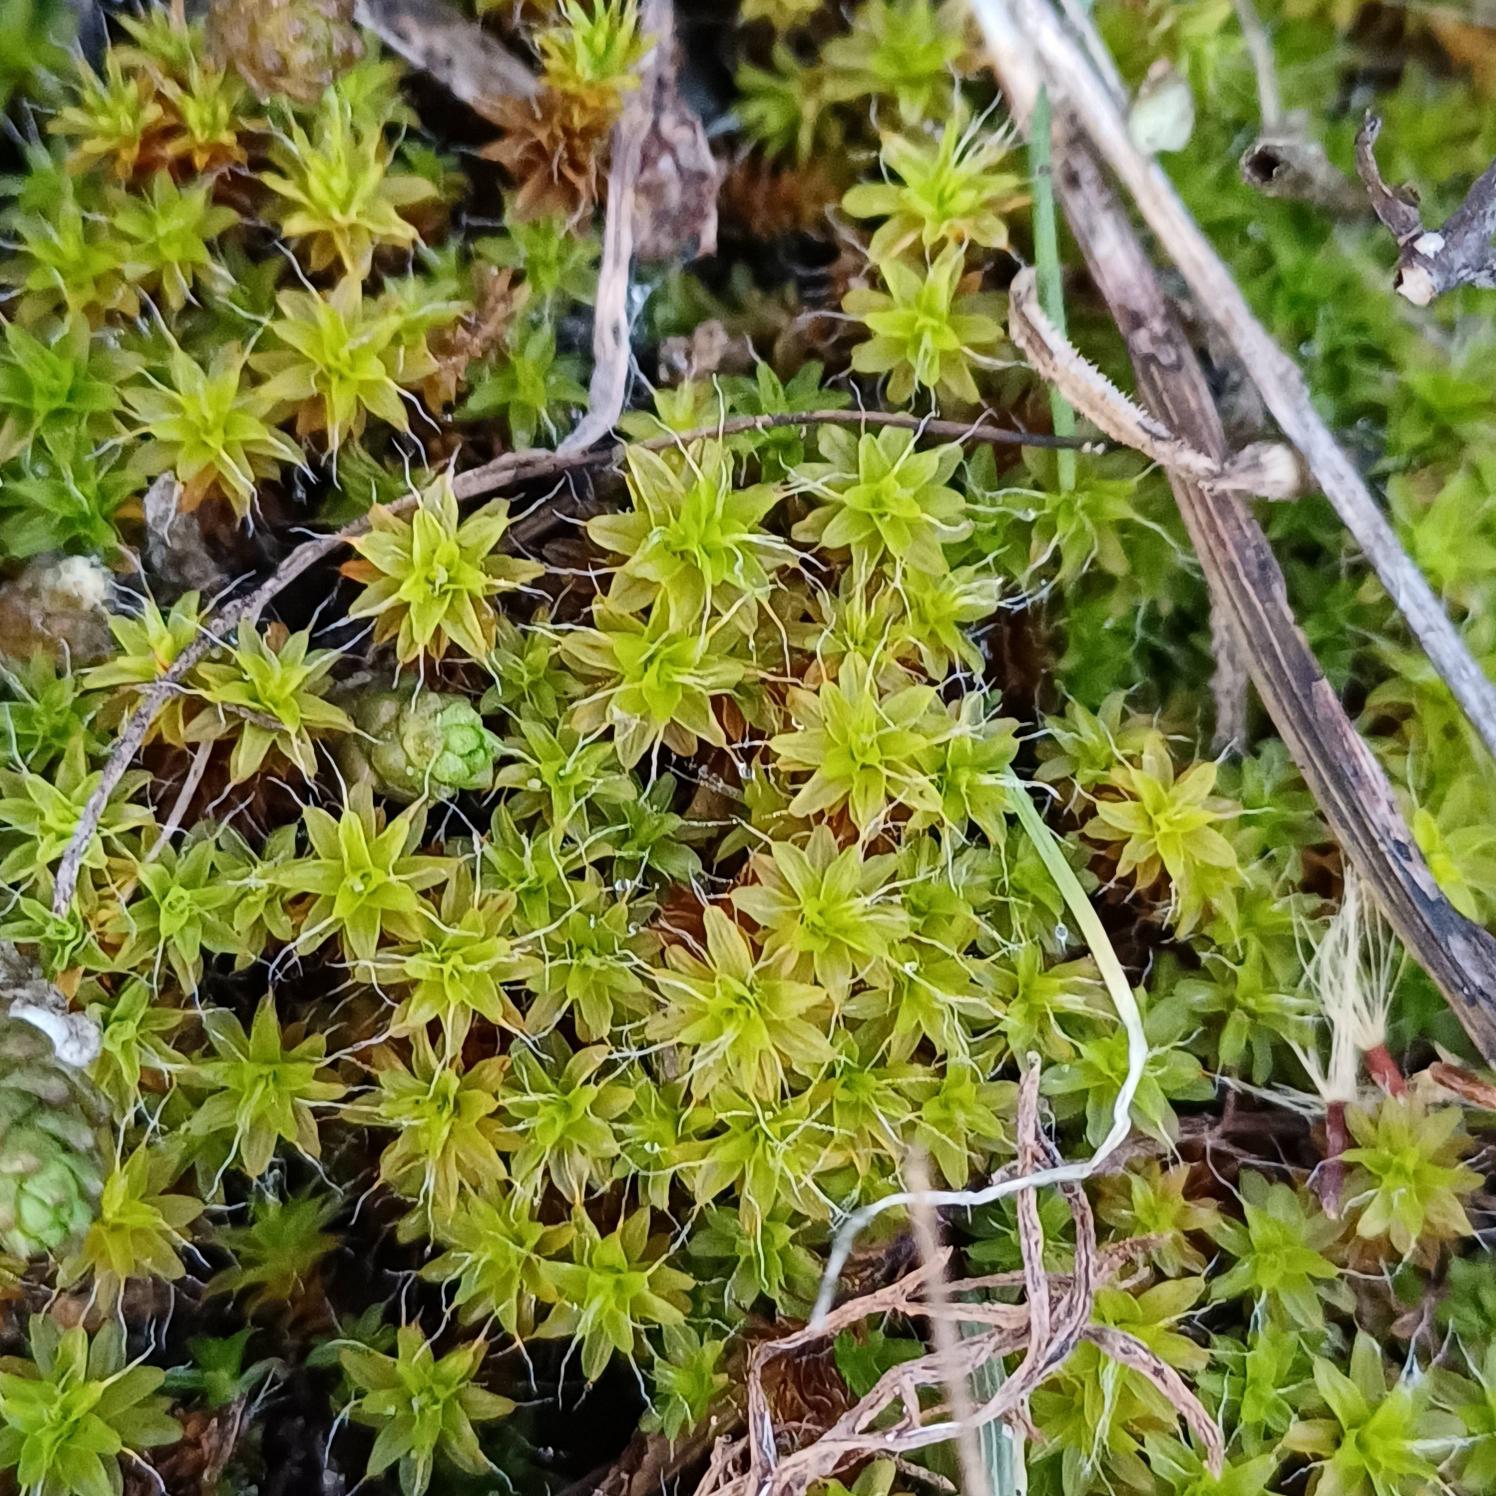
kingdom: Plantae
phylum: Bryophyta
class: Bryopsida
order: Pottiales
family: Pottiaceae
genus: Syntrichia
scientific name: Syntrichia ruralis
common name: Tag-hårstjerne
